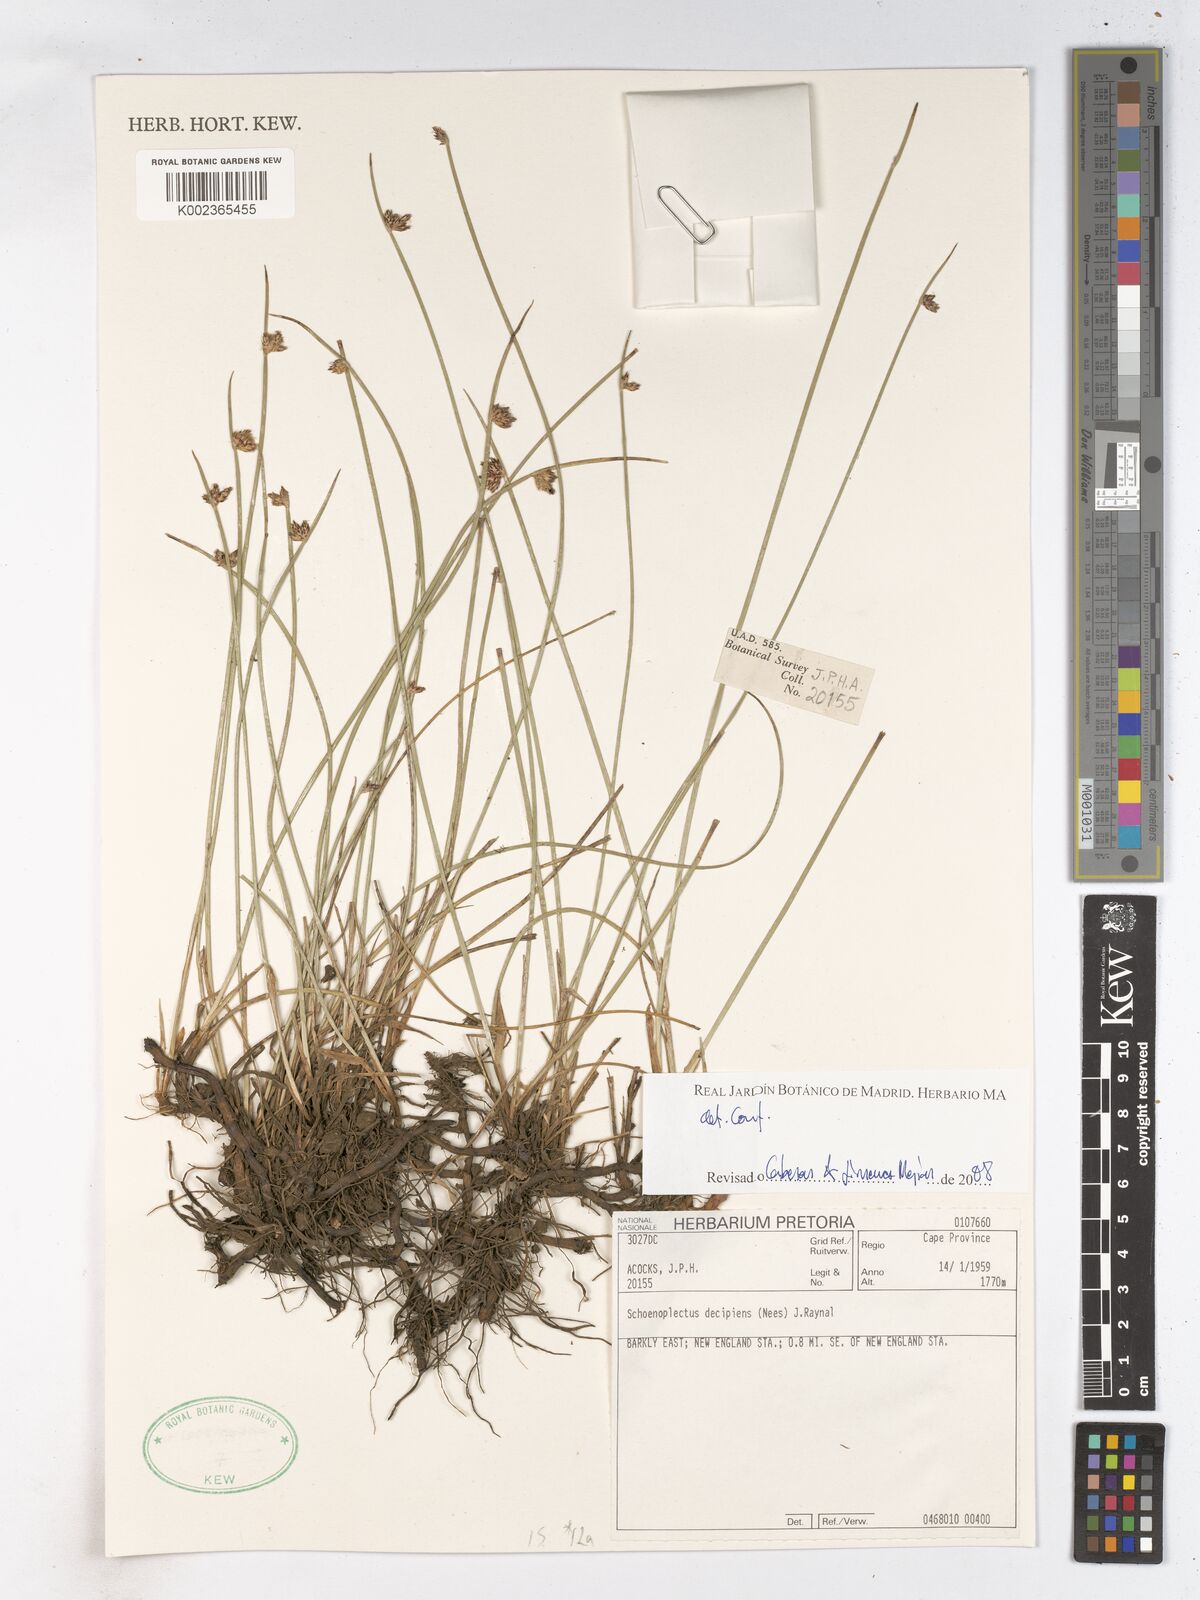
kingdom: Plantae
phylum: Tracheophyta
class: Liliopsida
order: Poales
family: Cyperaceae
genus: Schoenoplectiella
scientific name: Schoenoplectiella paludicola
